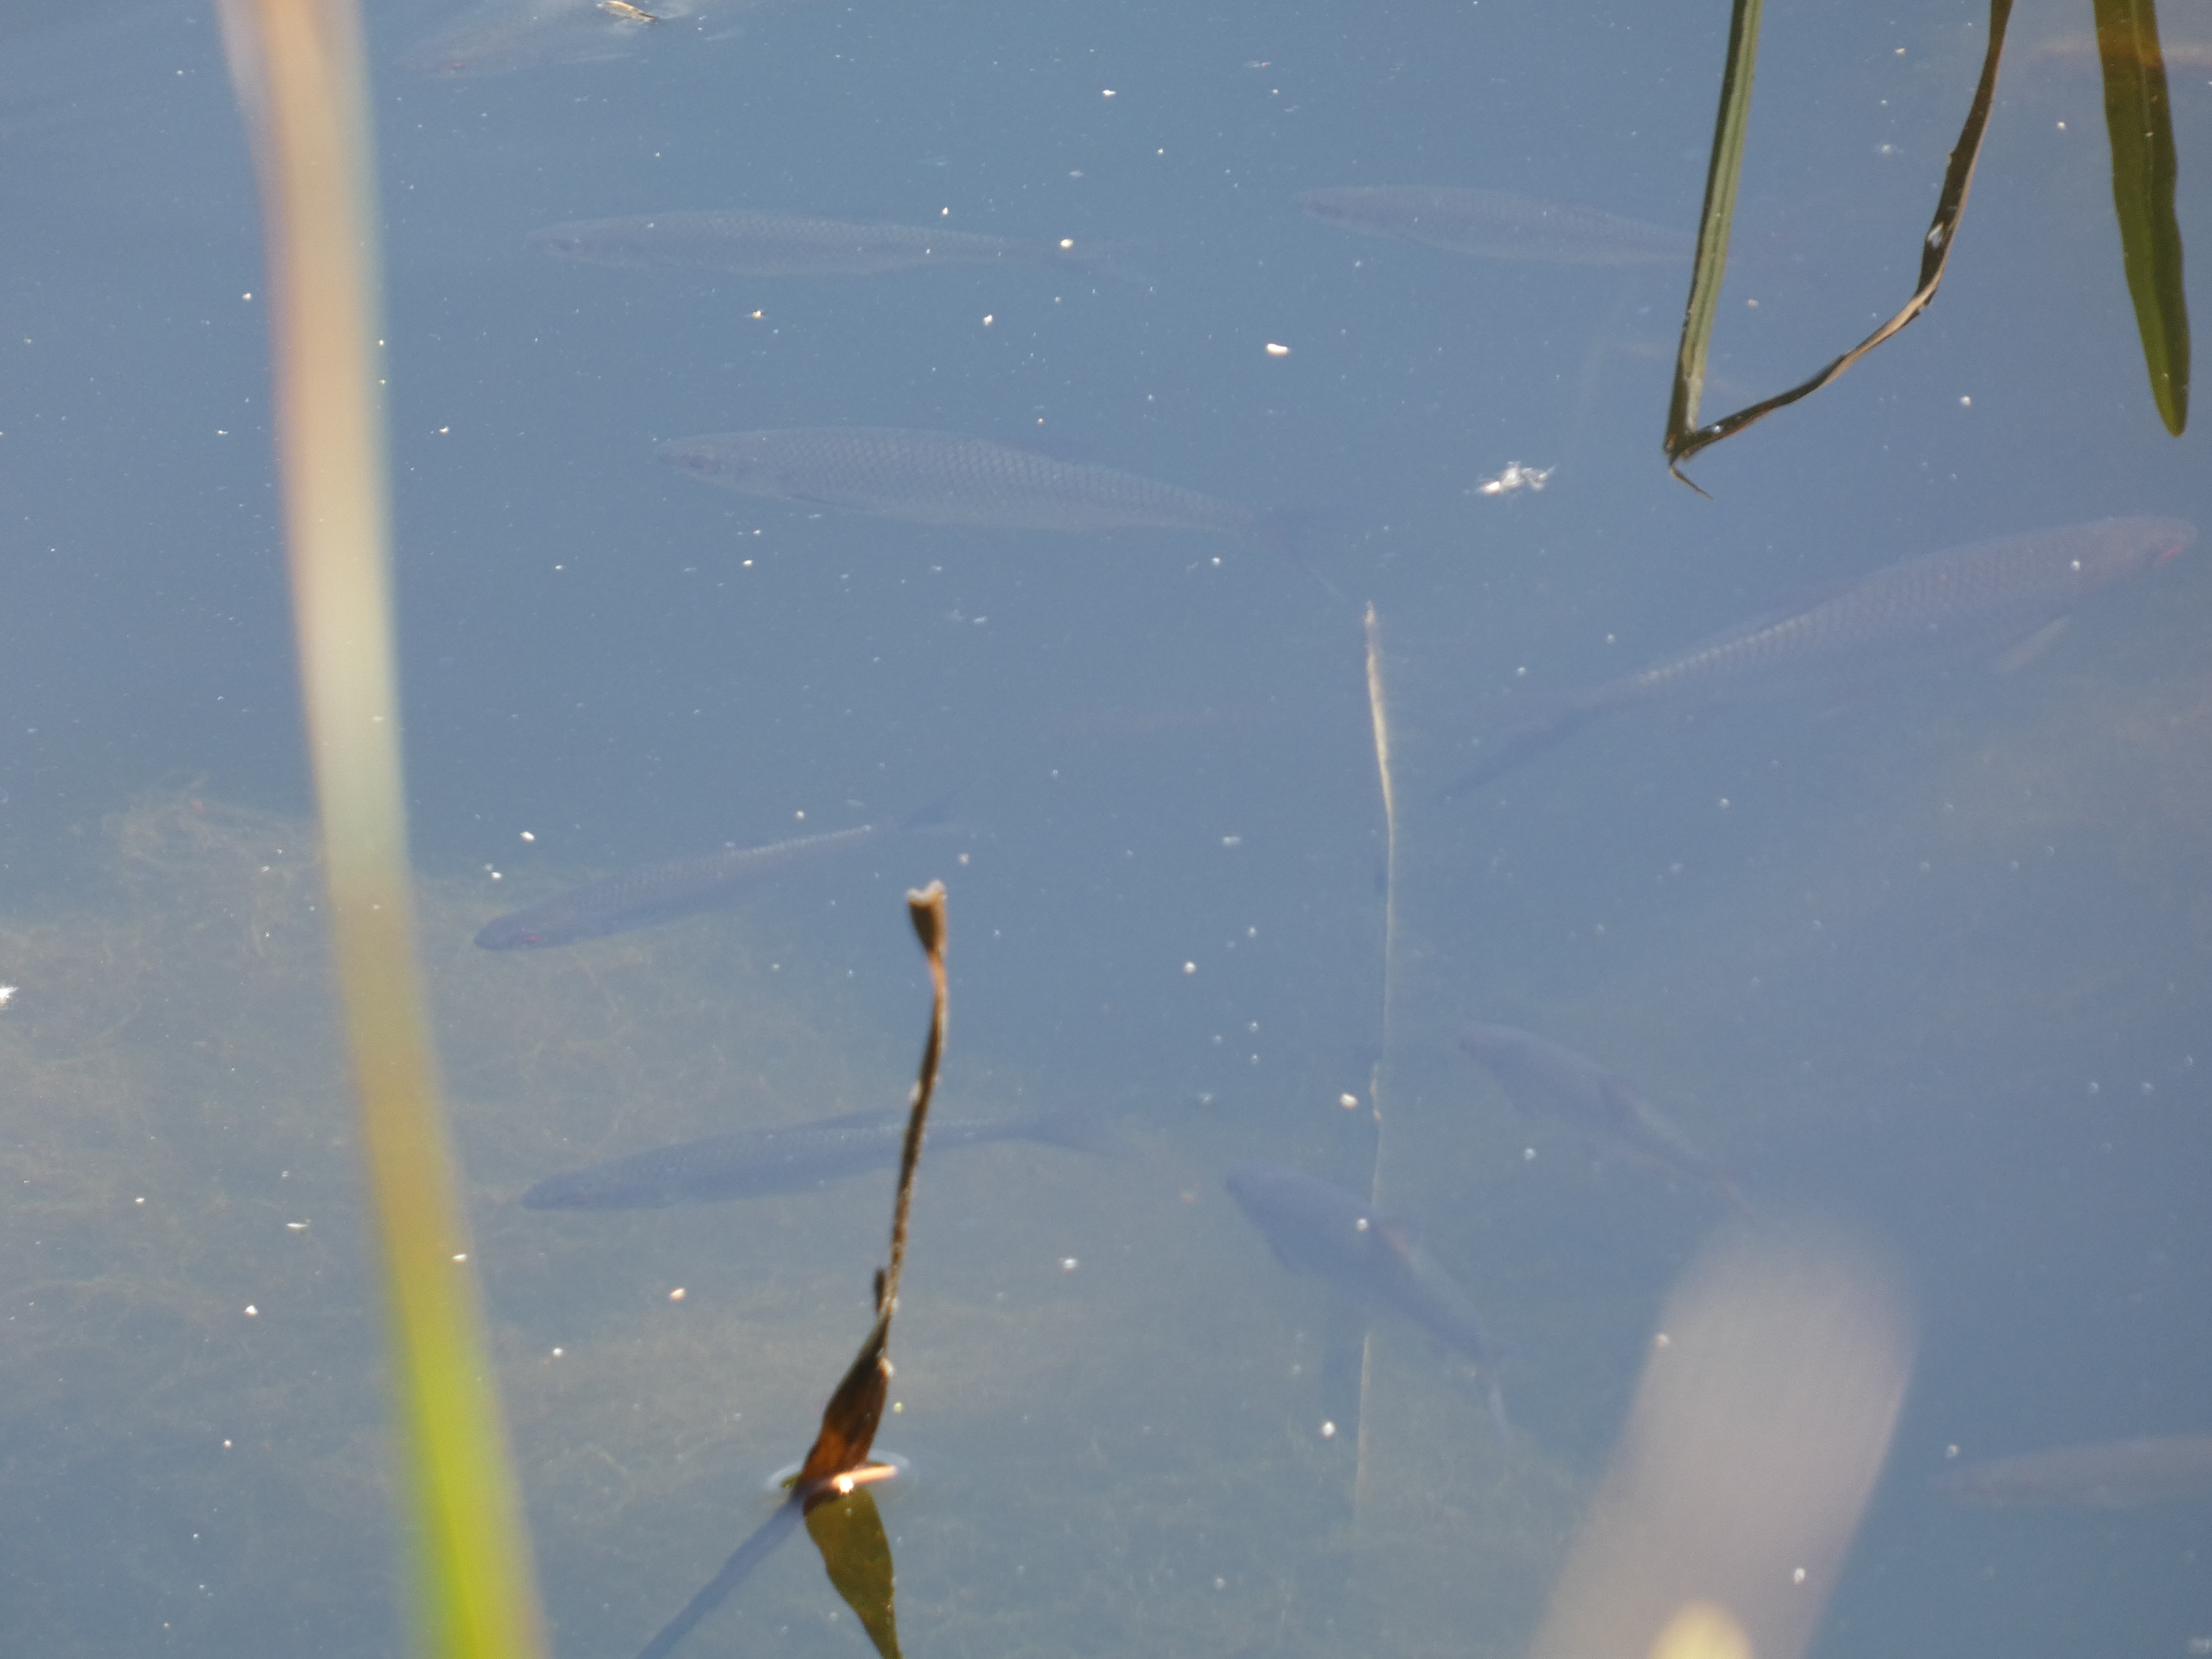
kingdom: Animalia
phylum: Chordata
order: Cypriniformes
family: Cyprinidae
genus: Rutilus
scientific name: Rutilus
